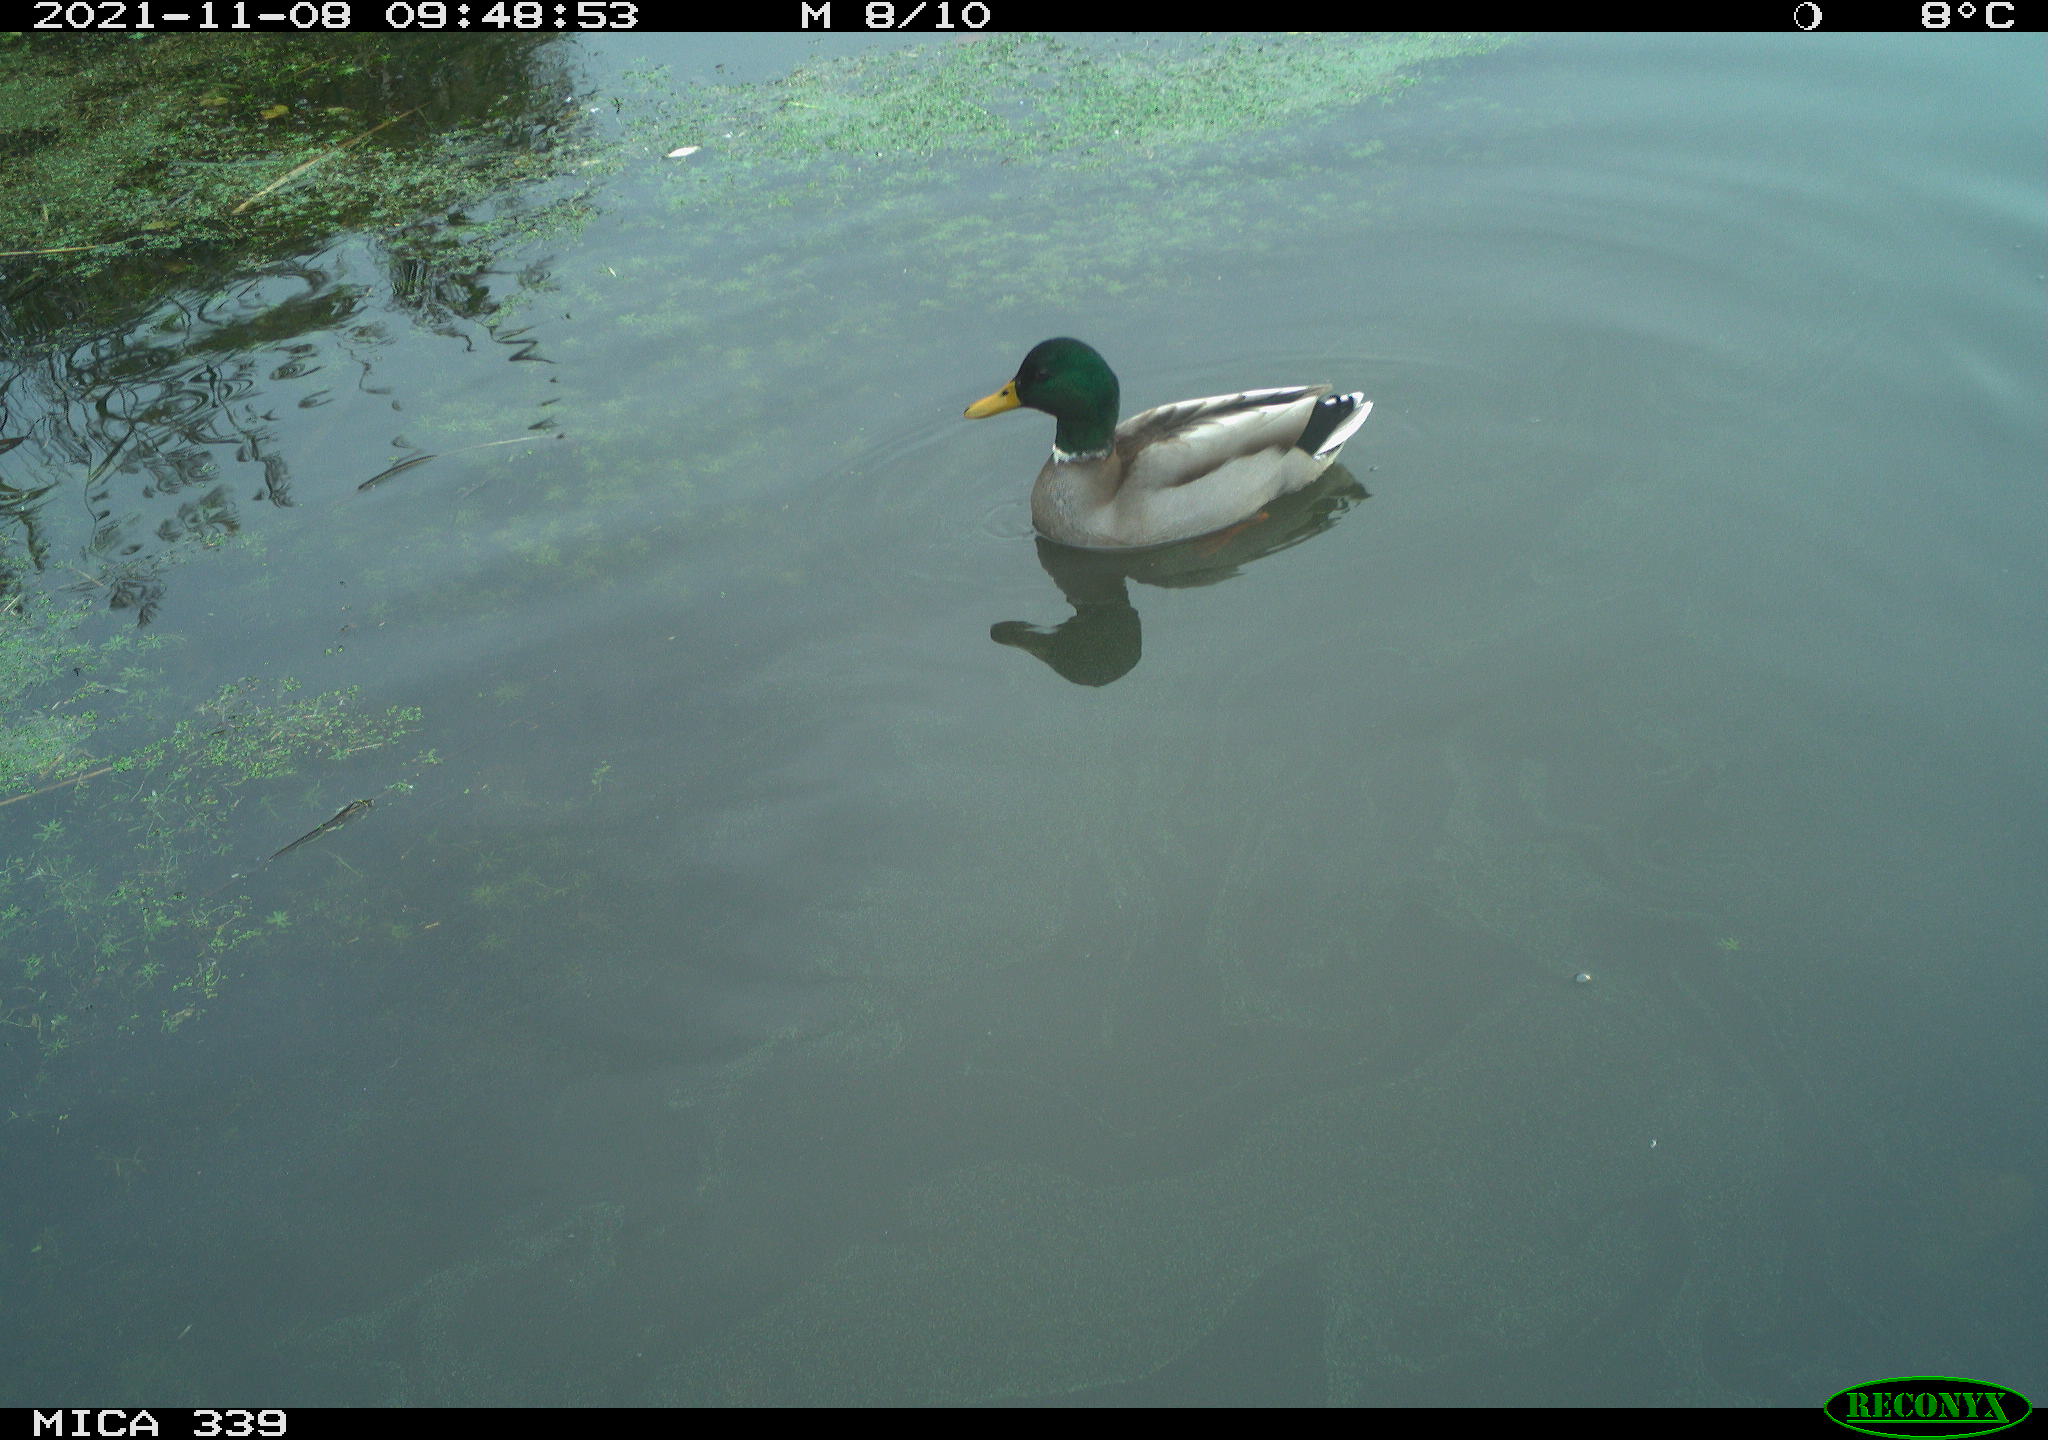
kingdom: Animalia
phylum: Chordata
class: Aves
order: Anseriformes
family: Anatidae
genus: Anas
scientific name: Anas platyrhynchos
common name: Mallard
